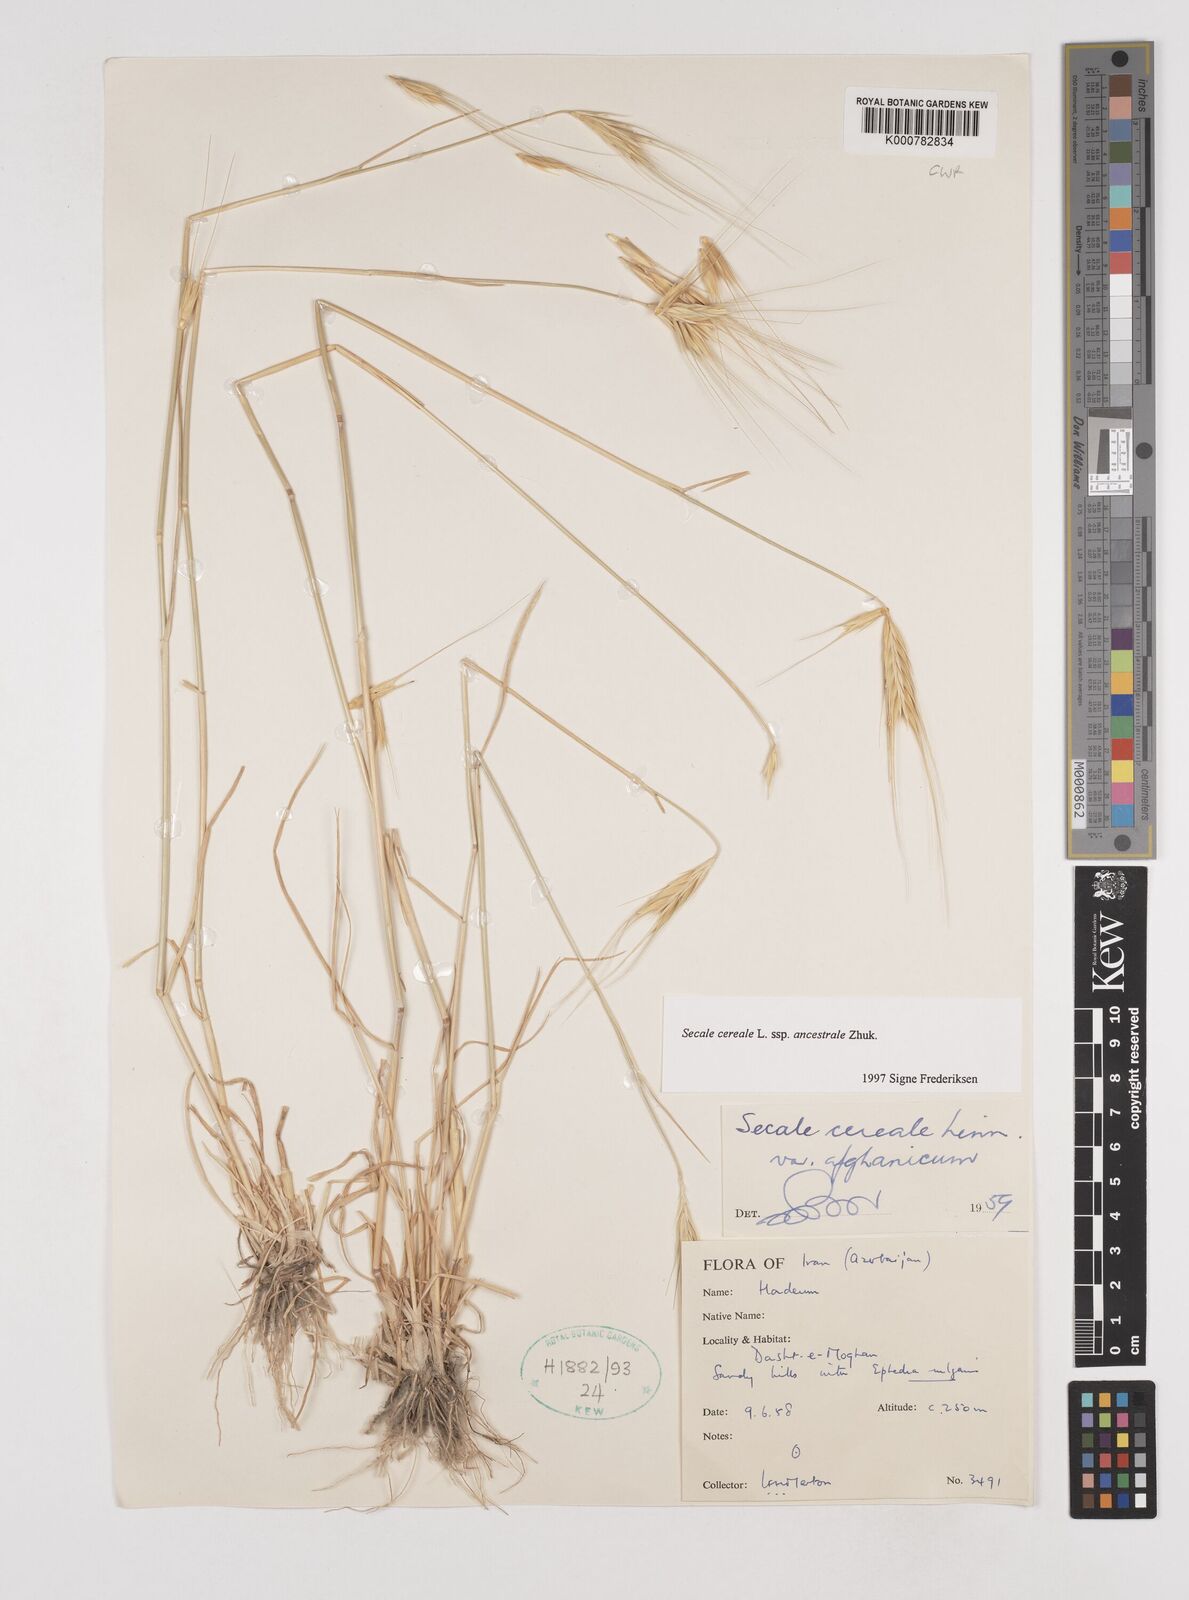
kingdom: Plantae
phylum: Tracheophyta
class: Liliopsida
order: Poales
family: Poaceae
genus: Secale
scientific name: Secale cereale
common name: Rye
